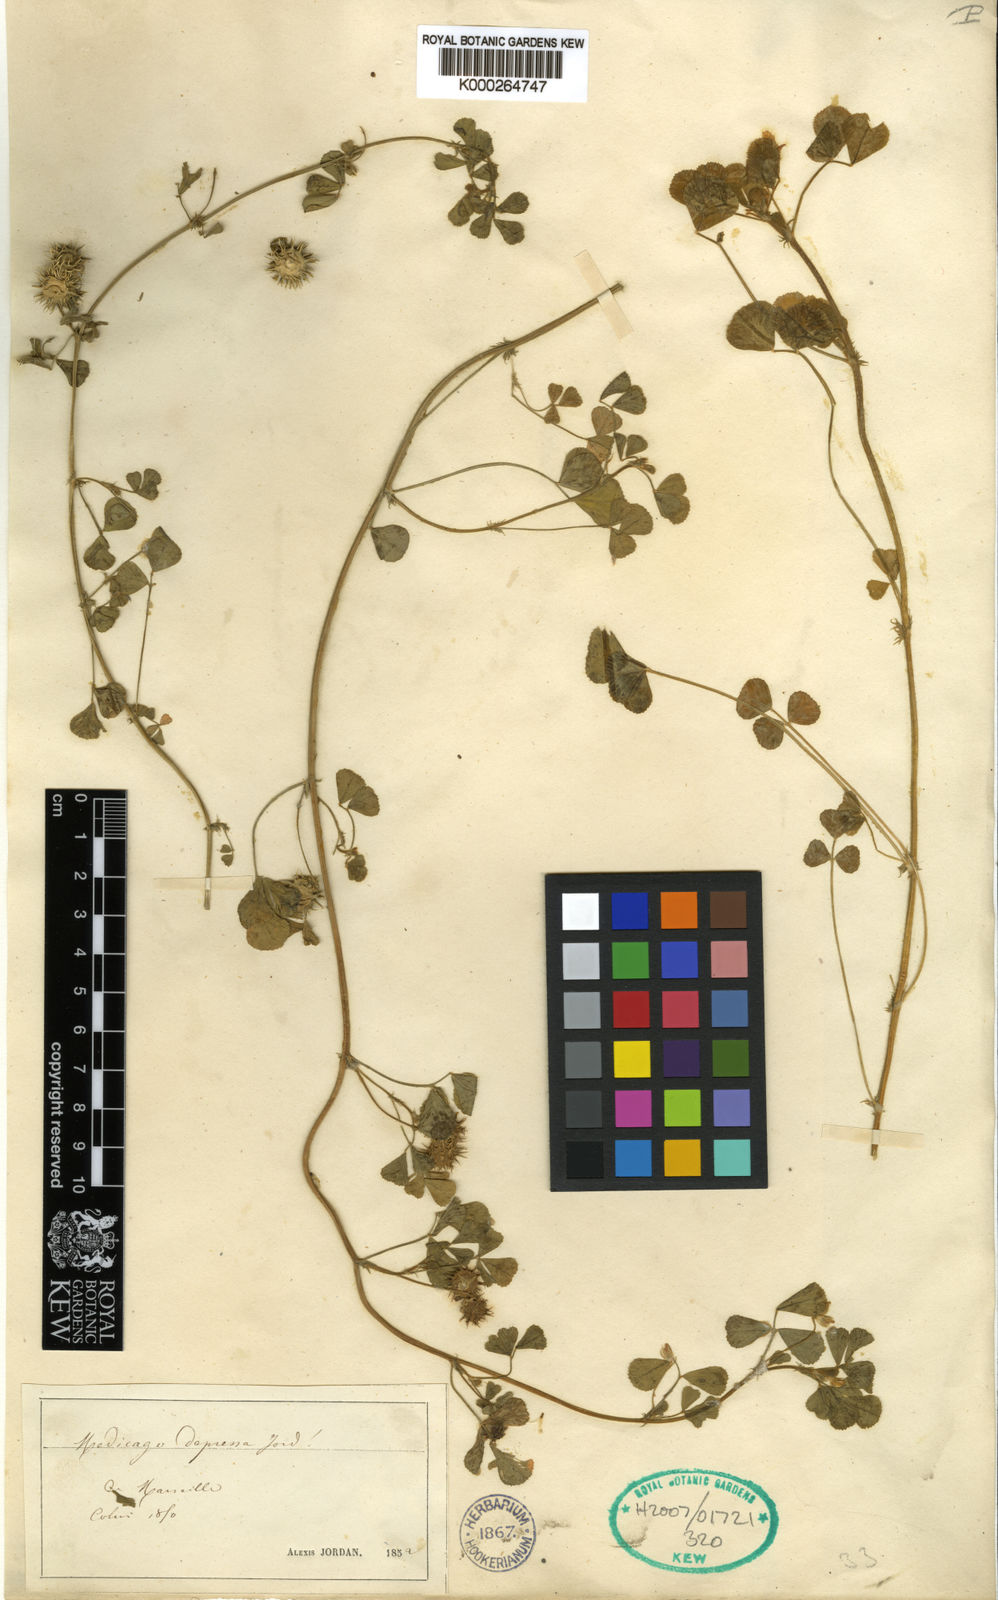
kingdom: Plantae
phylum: Tracheophyta
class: Magnoliopsida
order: Fabales
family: Fabaceae
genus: Medicago
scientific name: Medicago
